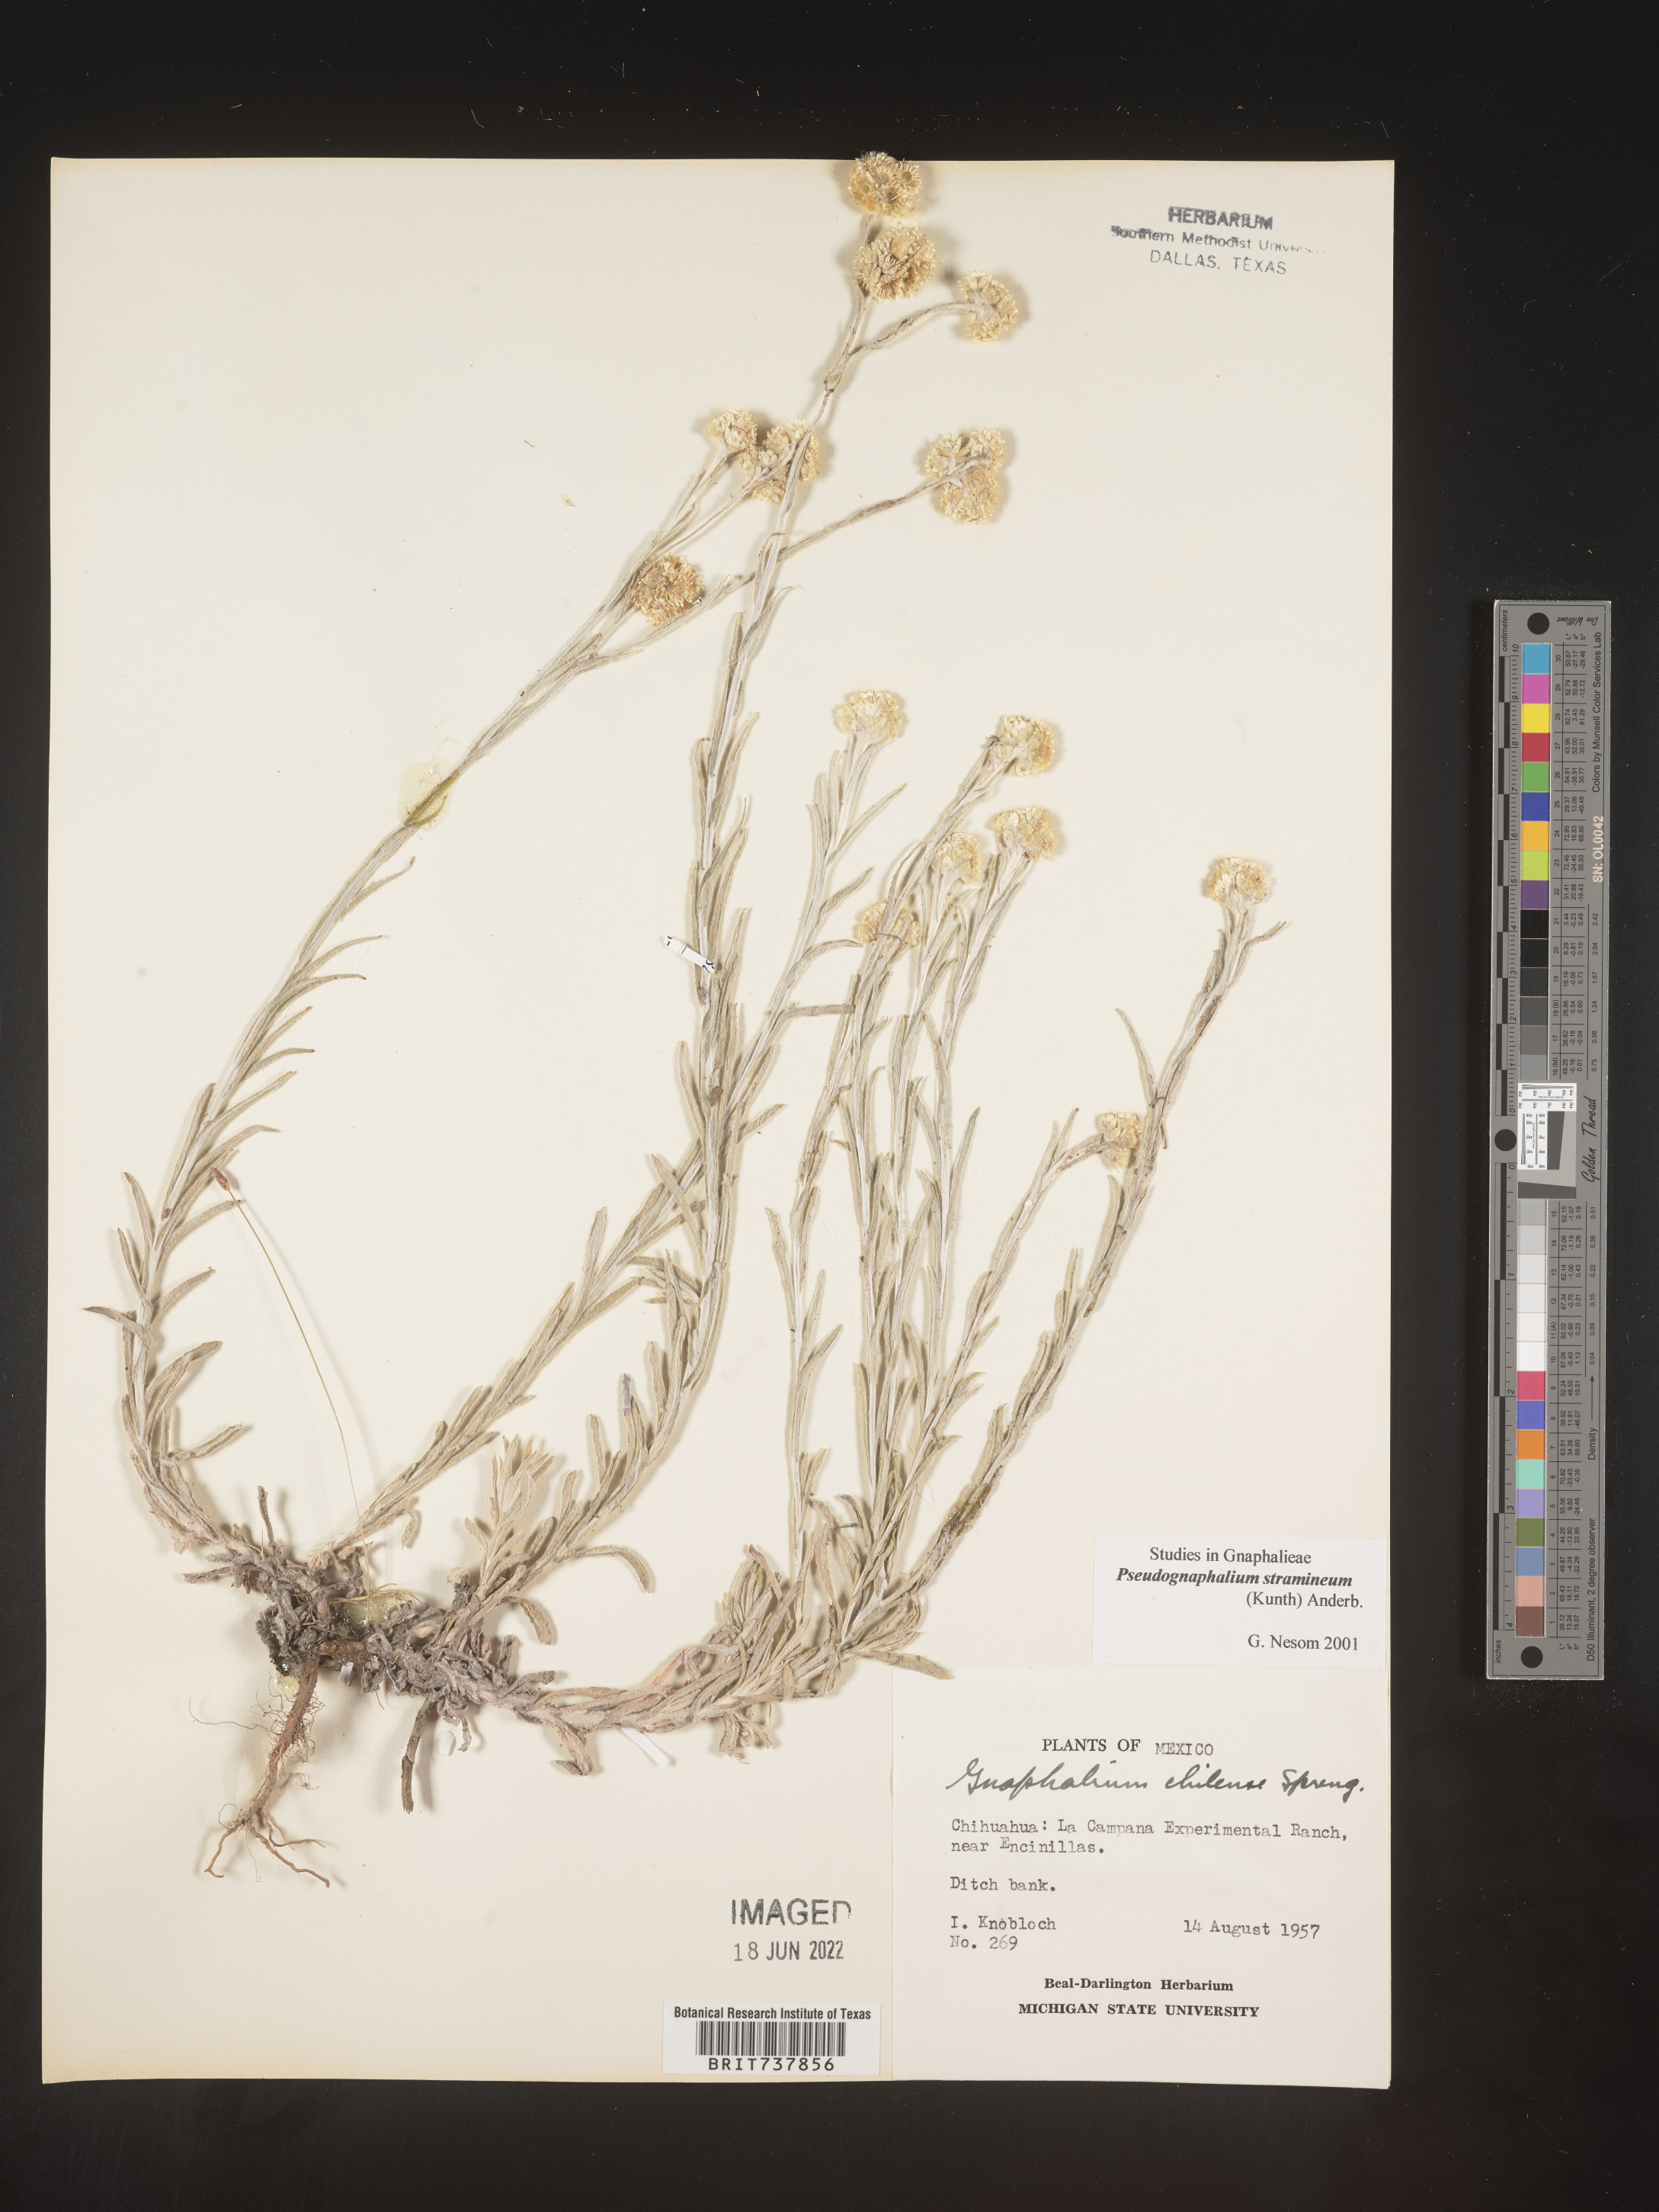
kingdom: Plantae
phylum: Tracheophyta
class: Magnoliopsida
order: Asterales
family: Asteraceae
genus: Pseudognaphalium
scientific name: Pseudognaphalium stramineum
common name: Cotton-batting-plant
